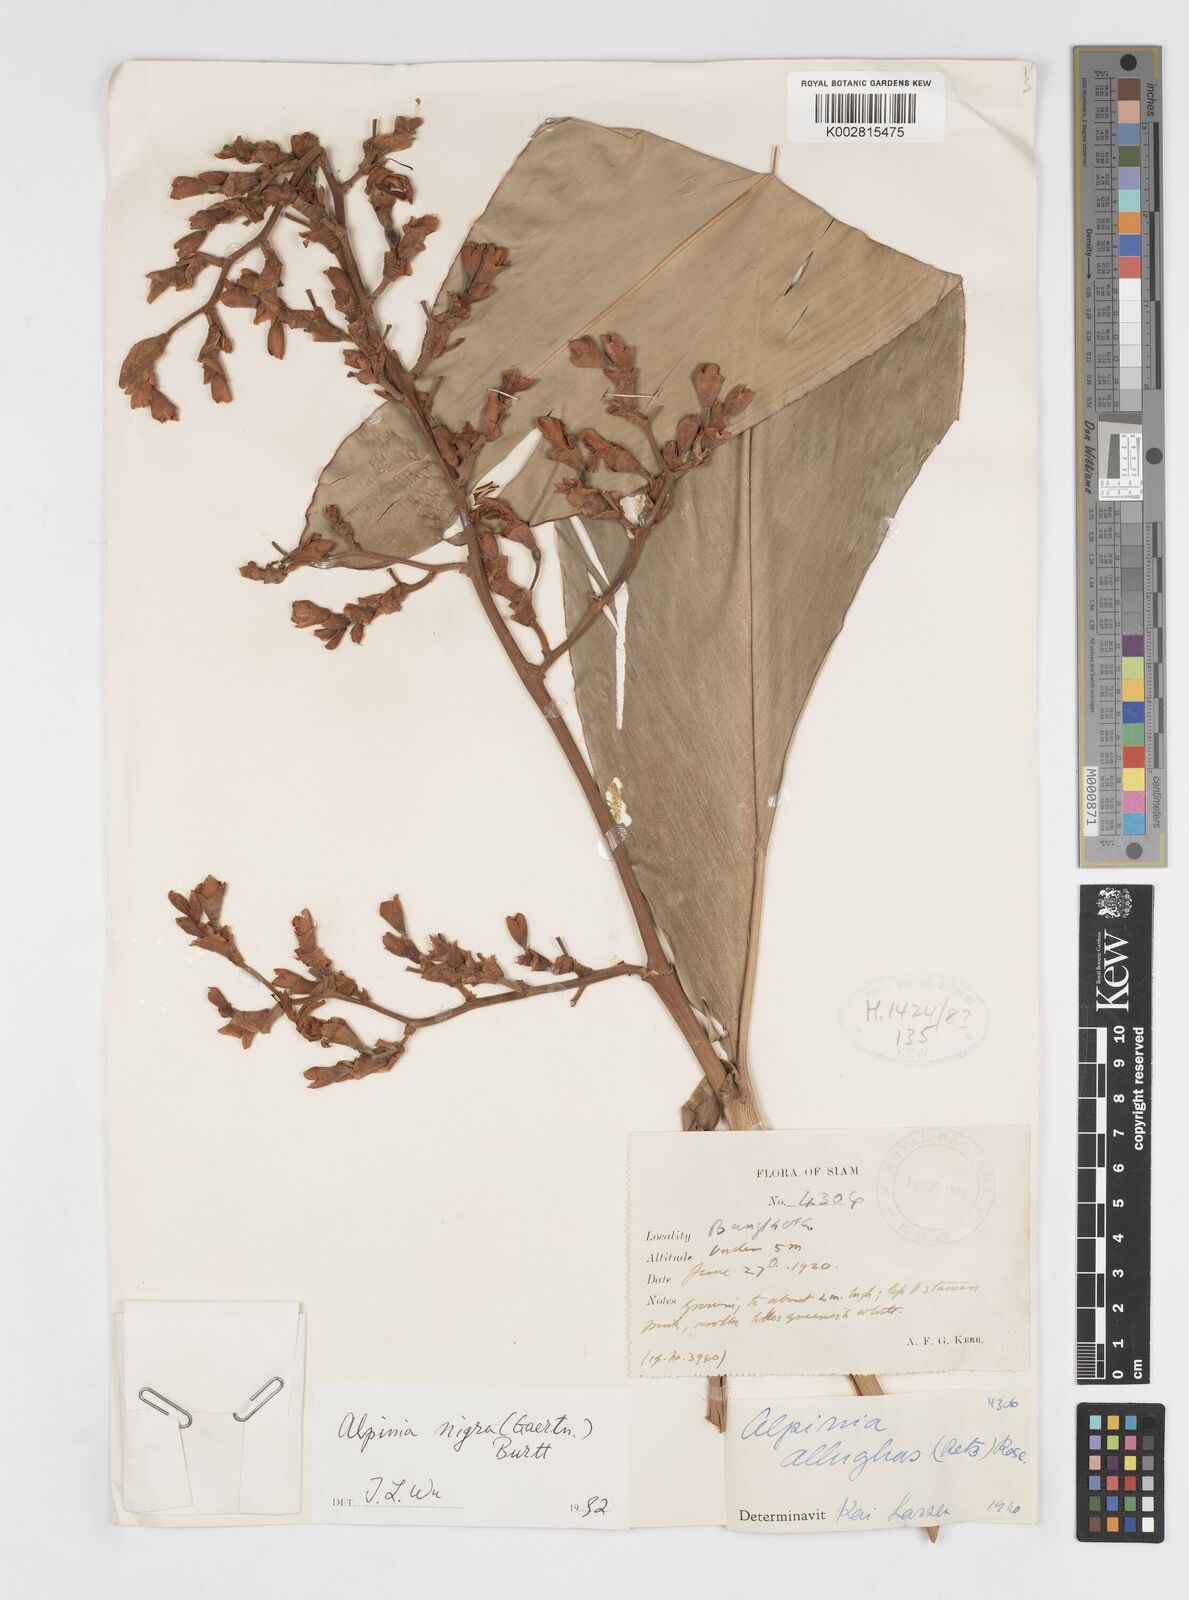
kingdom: Plantae
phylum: Tracheophyta
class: Liliopsida
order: Zingiberales
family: Zingiberaceae
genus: Alpinia
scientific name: Alpinia nigra
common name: Black fruited galanga
